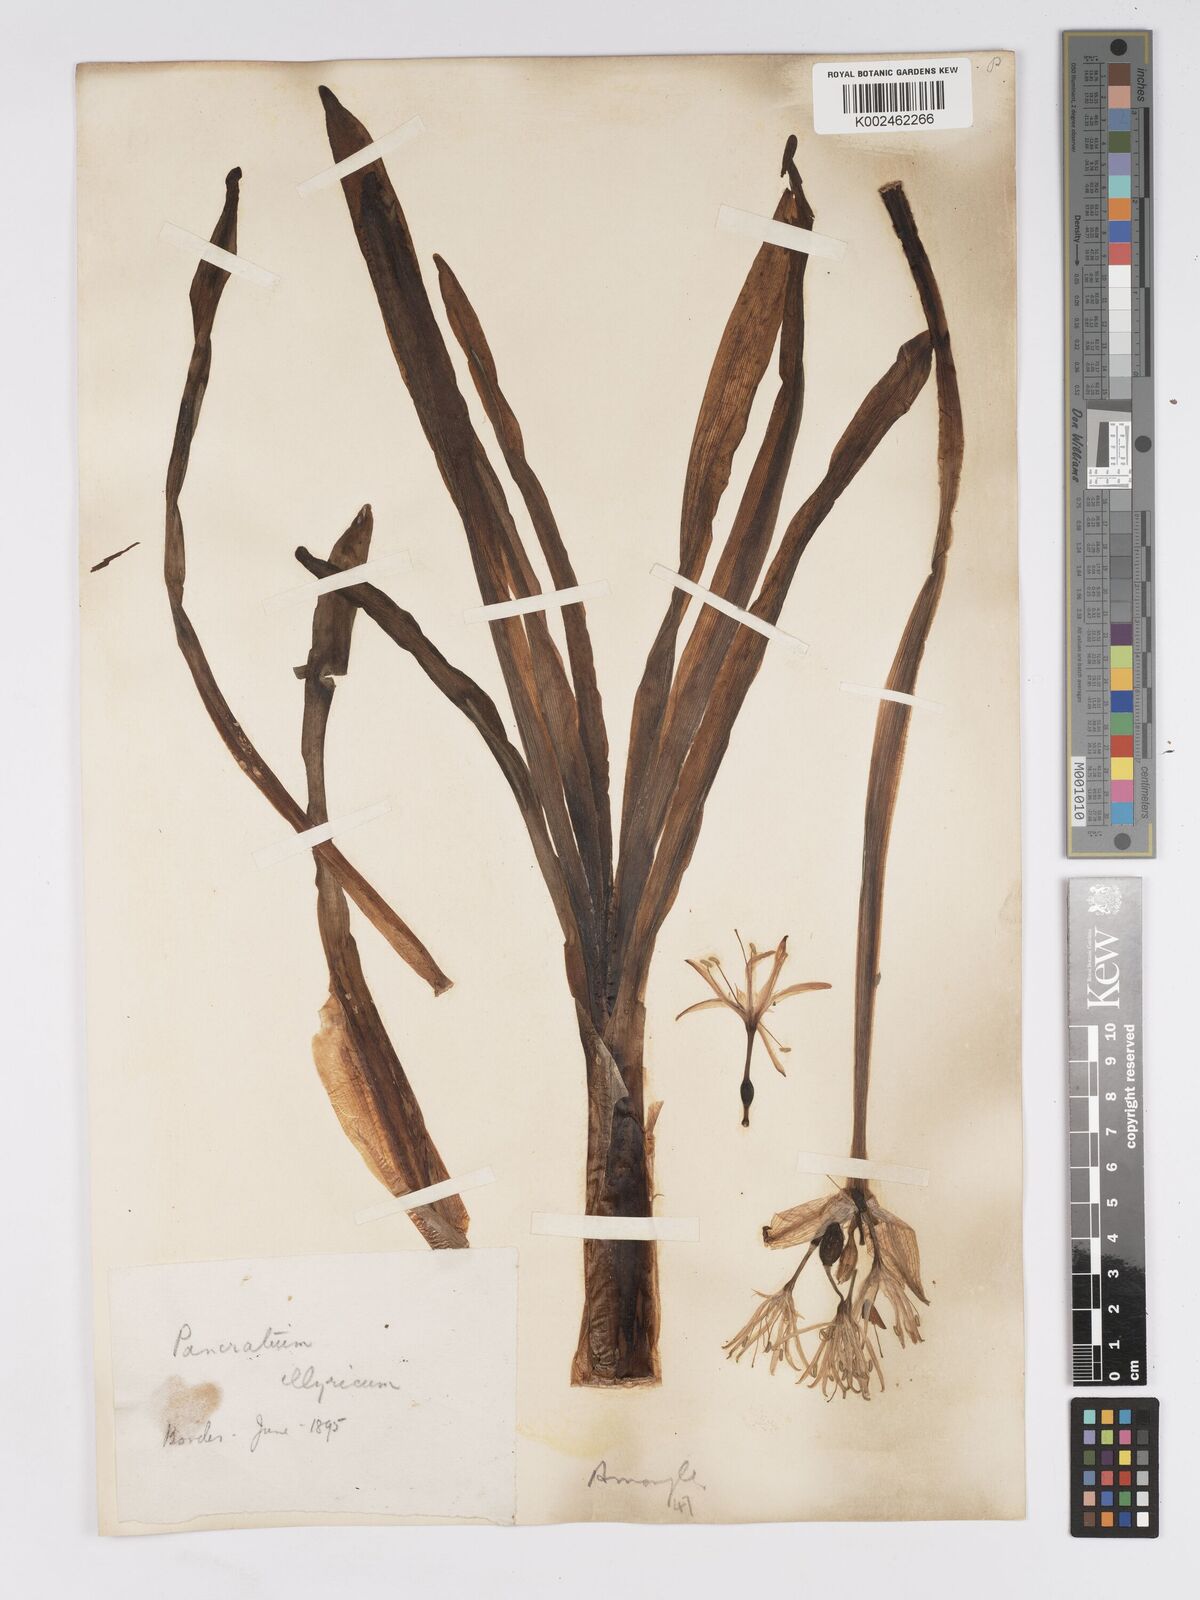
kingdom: Plantae
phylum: Tracheophyta
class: Liliopsida
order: Asparagales
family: Amaryllidaceae
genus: Pancratium
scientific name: Pancratium illyricum
